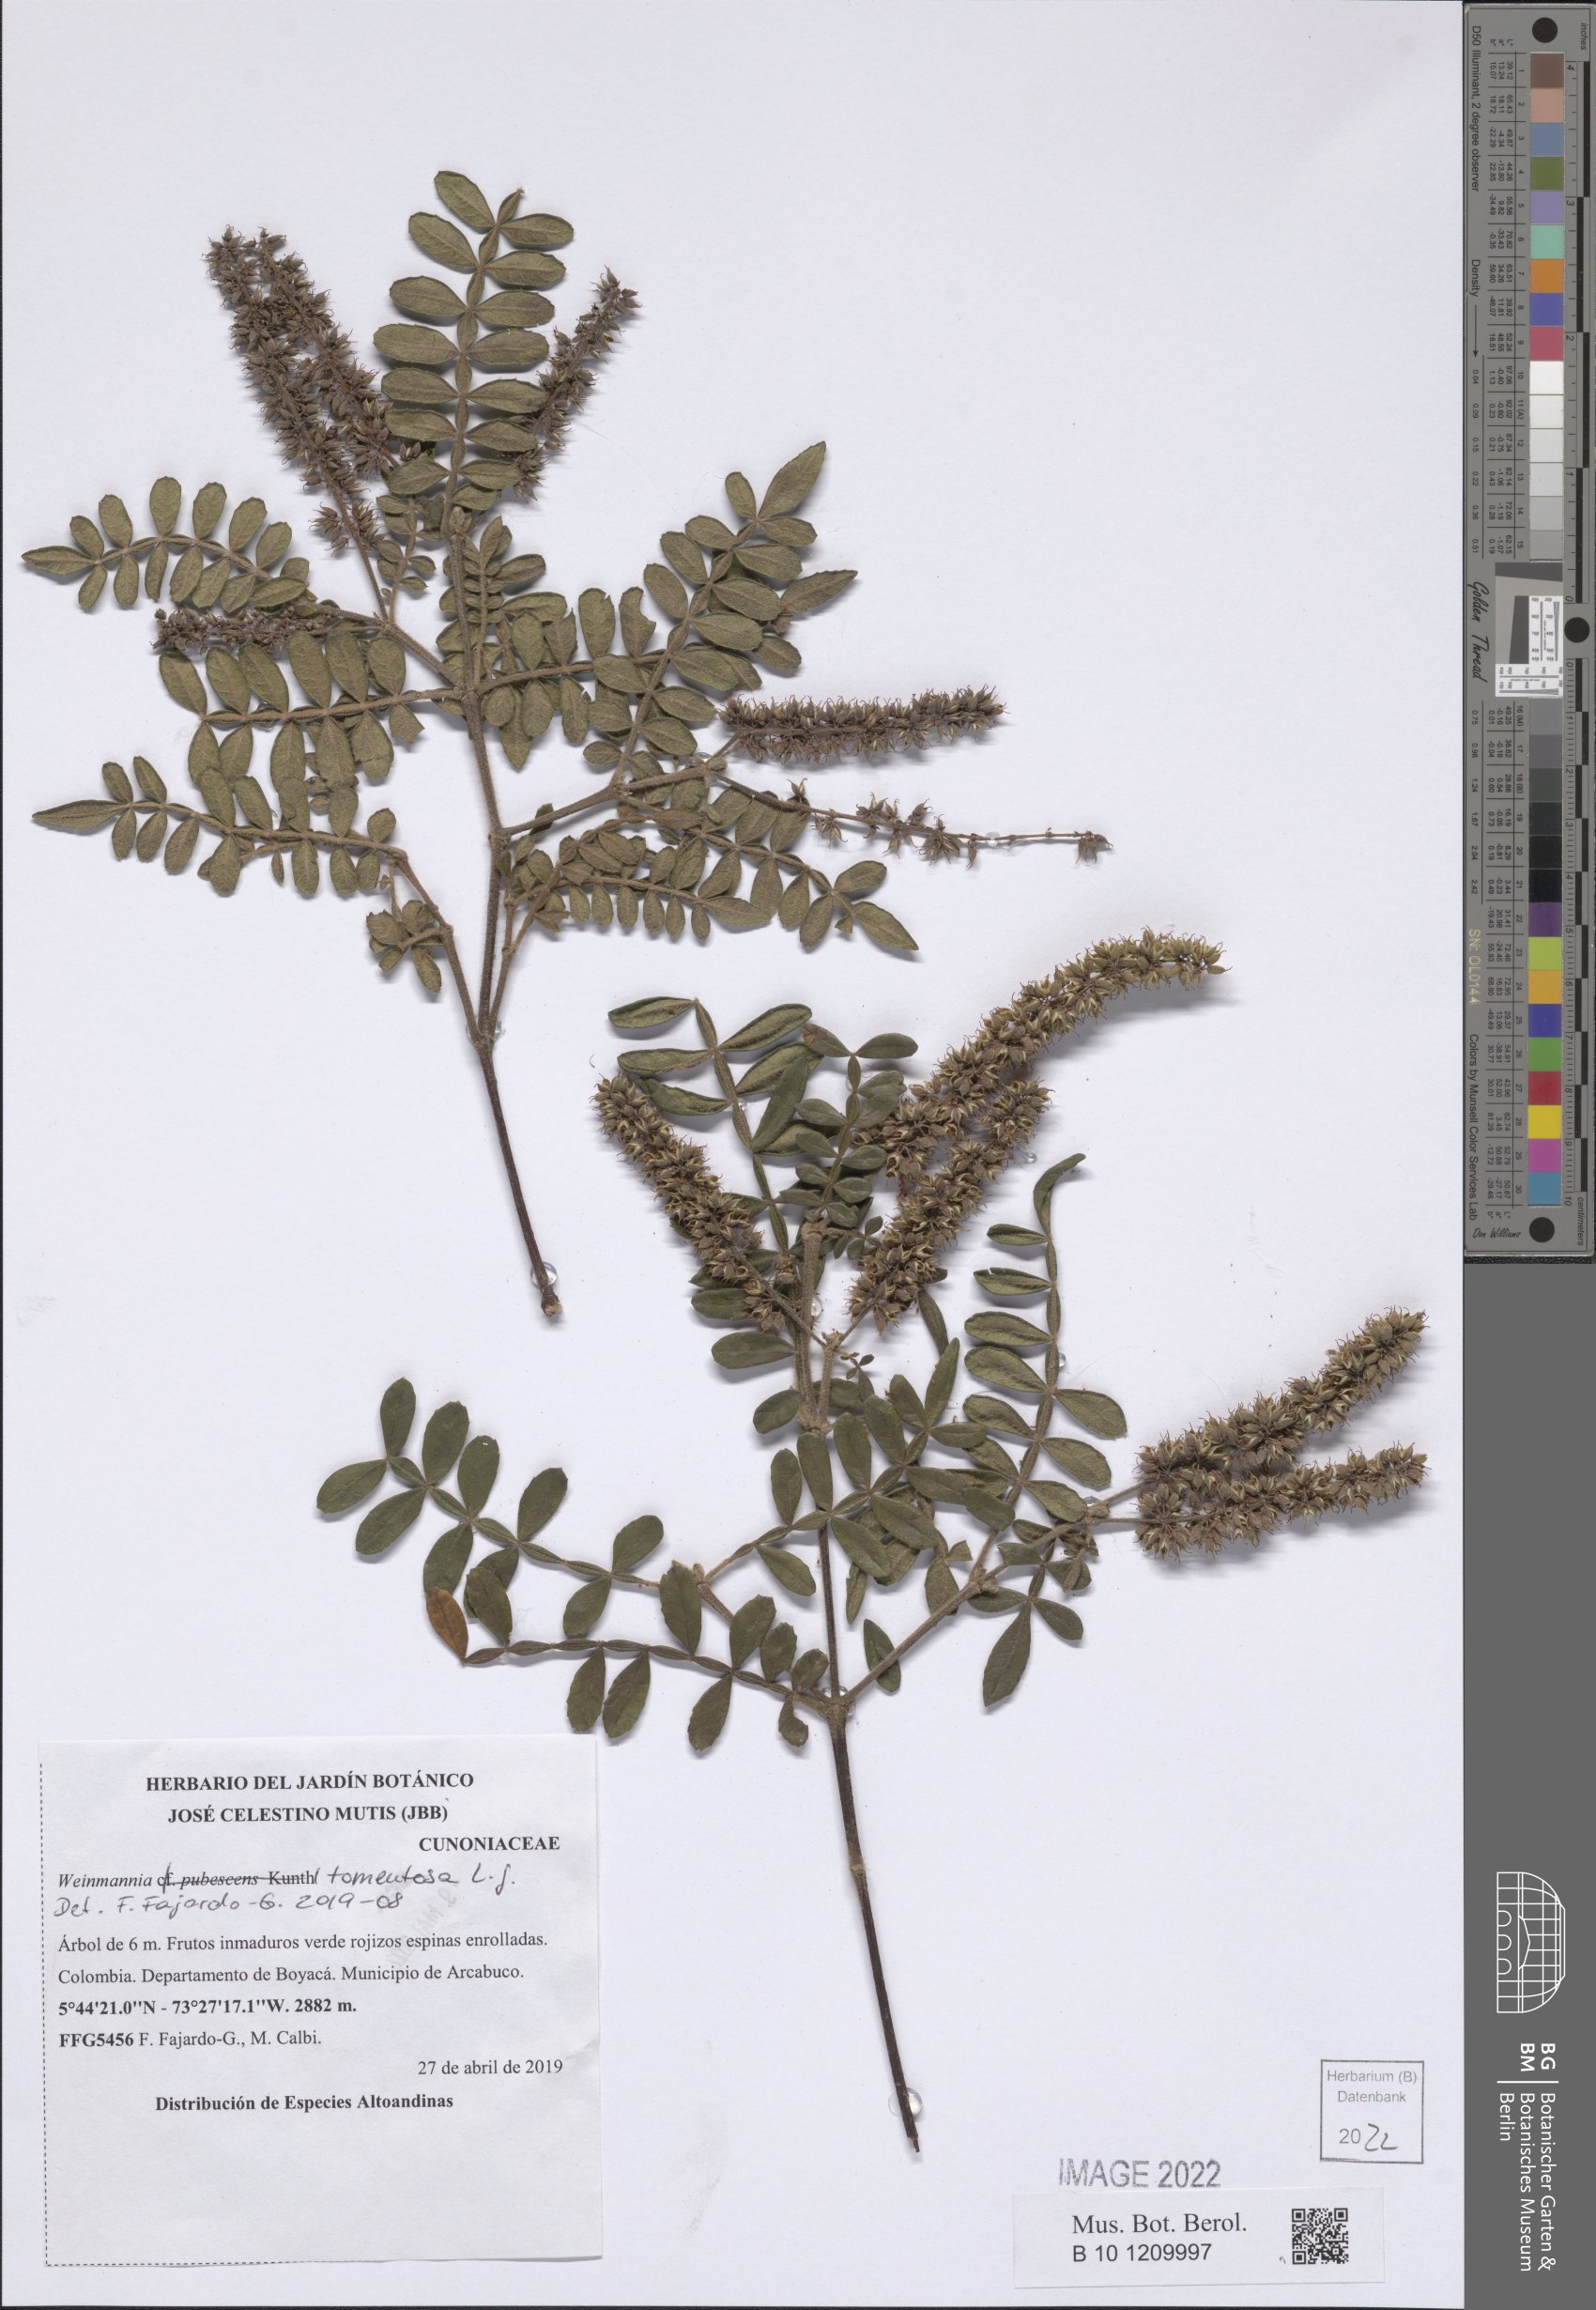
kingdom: Plantae
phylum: Tracheophyta
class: Magnoliopsida
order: Oxalidales
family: Cunoniaceae
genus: Weinmannia
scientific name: Weinmannia tomentosa
